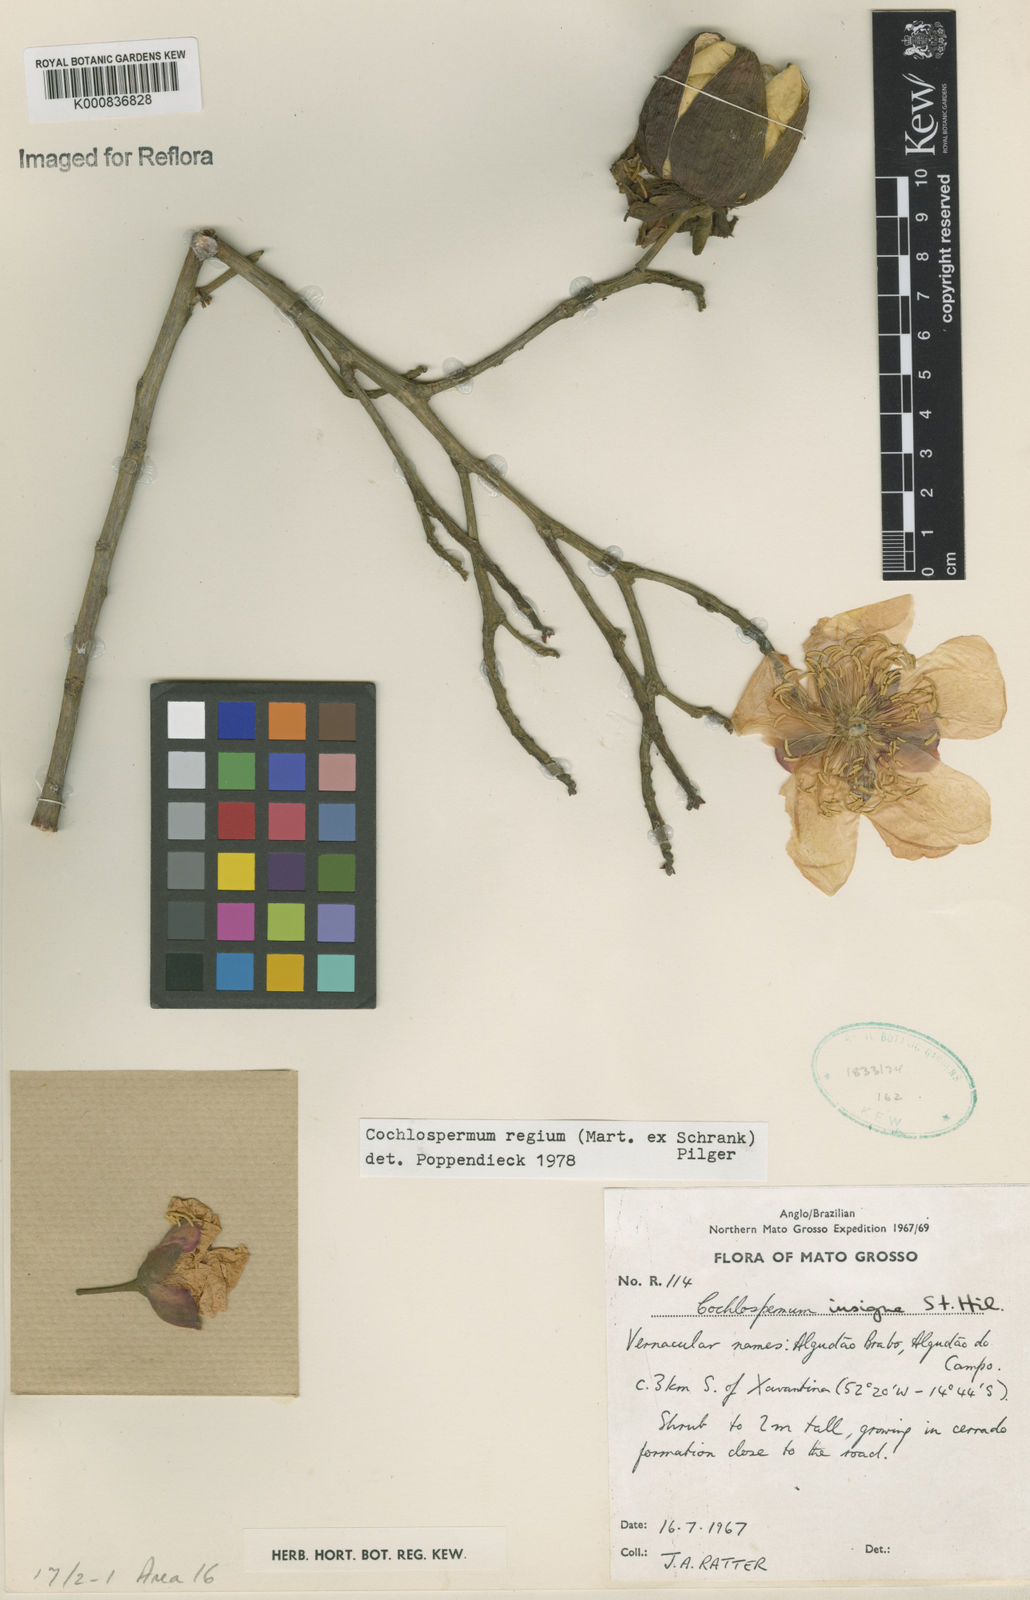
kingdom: Plantae
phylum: Tracheophyta
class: Magnoliopsida
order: Malvales
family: Cochlospermaceae
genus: Cochlospermum
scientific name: Cochlospermum regium
